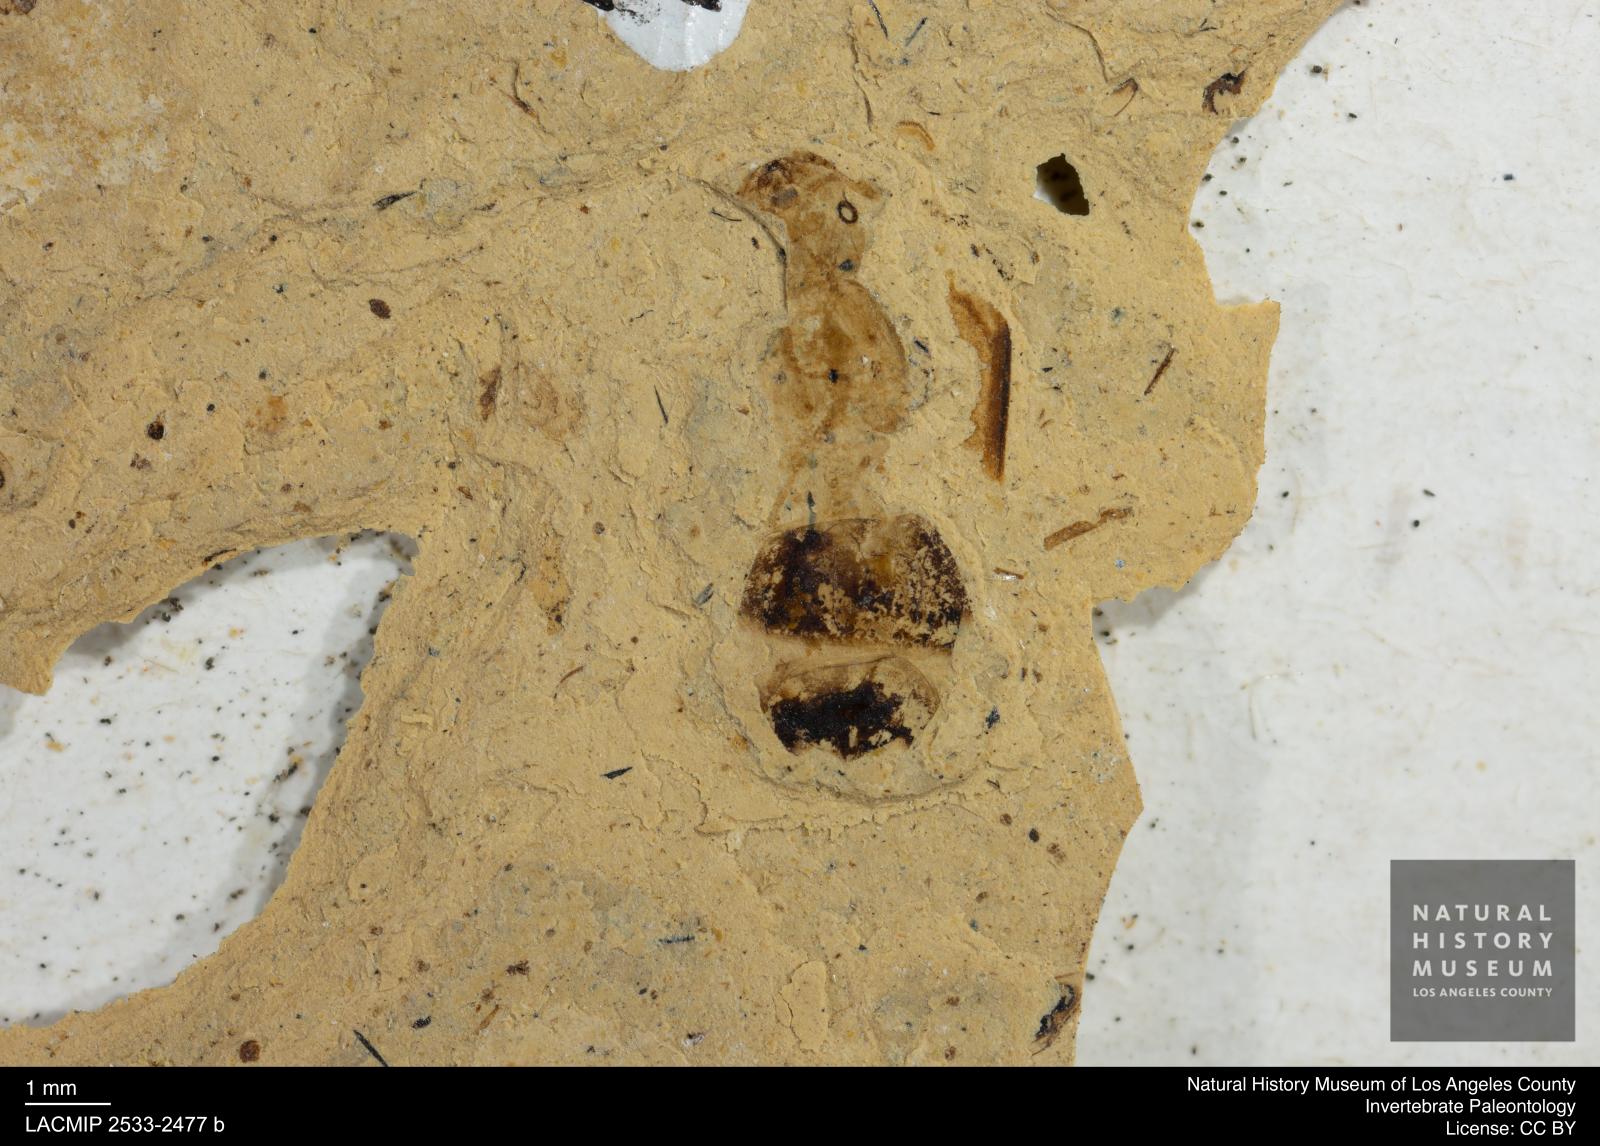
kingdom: Animalia
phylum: Arthropoda
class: Insecta
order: Hymenoptera
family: Formicidae
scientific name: Formicidae
